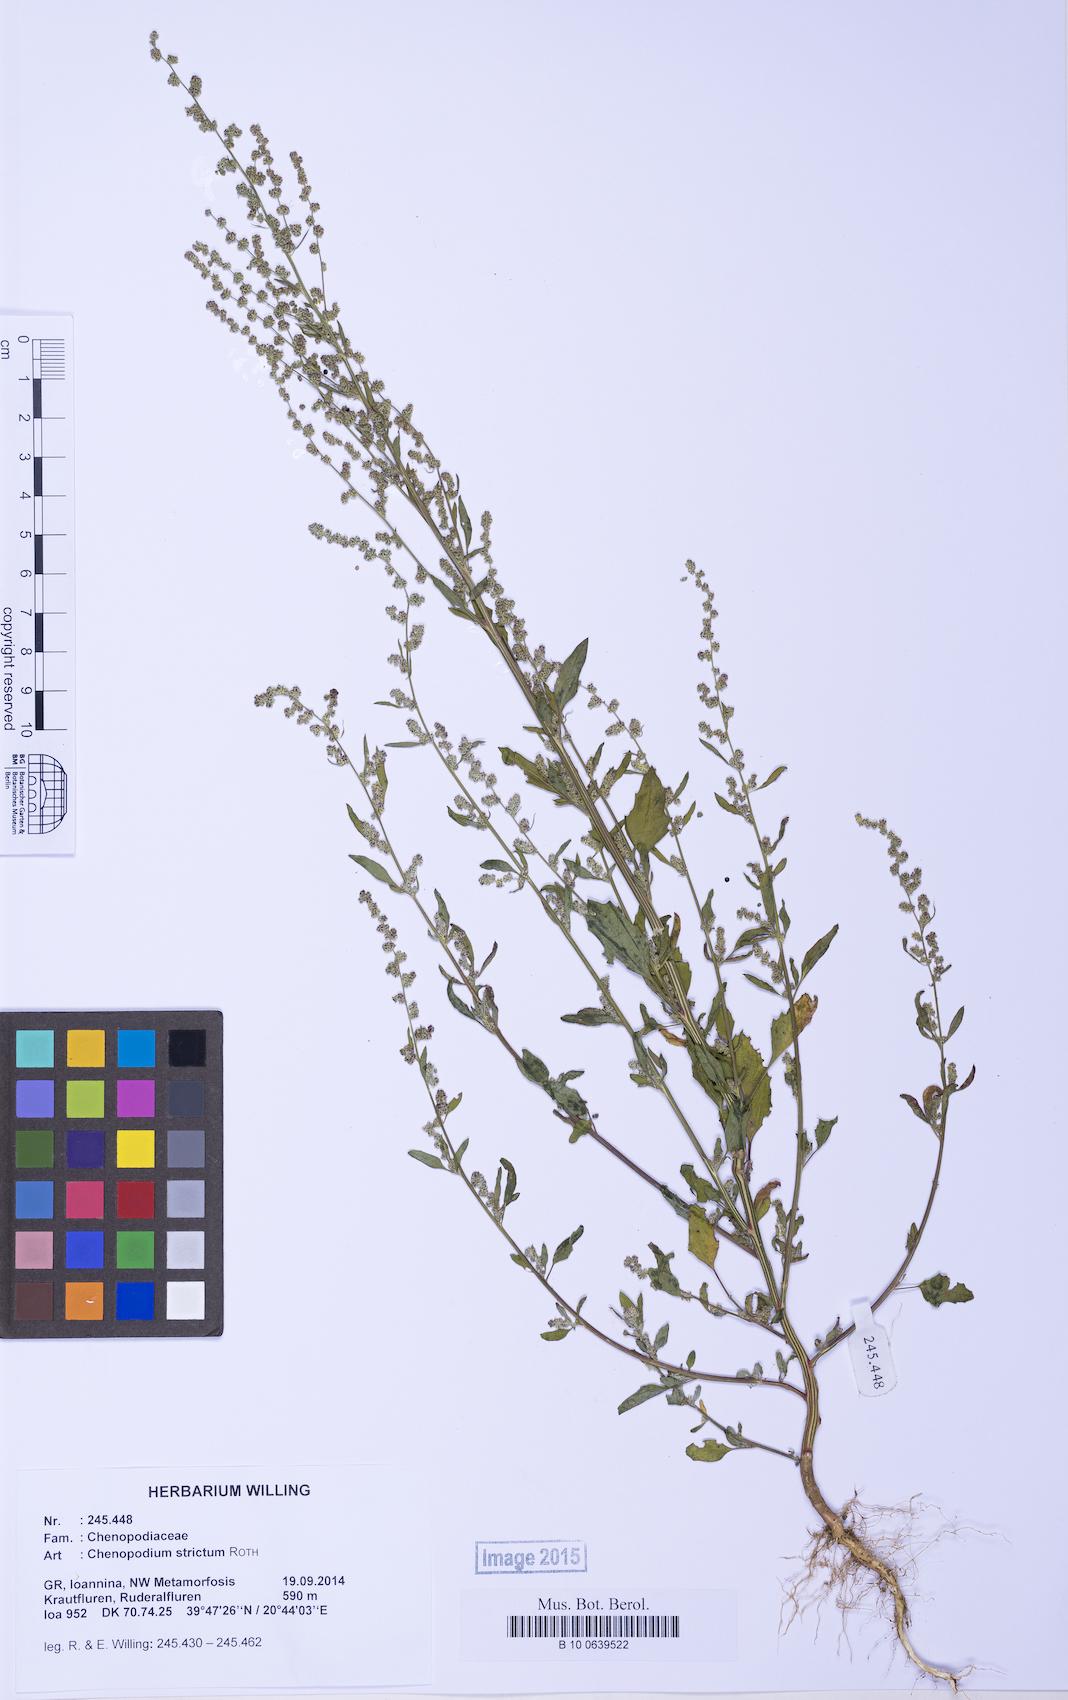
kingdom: Plantae
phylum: Tracheophyta
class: Magnoliopsida
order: Caryophyllales
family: Amaranthaceae
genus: Chenopodium
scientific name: Chenopodium striatiforme
